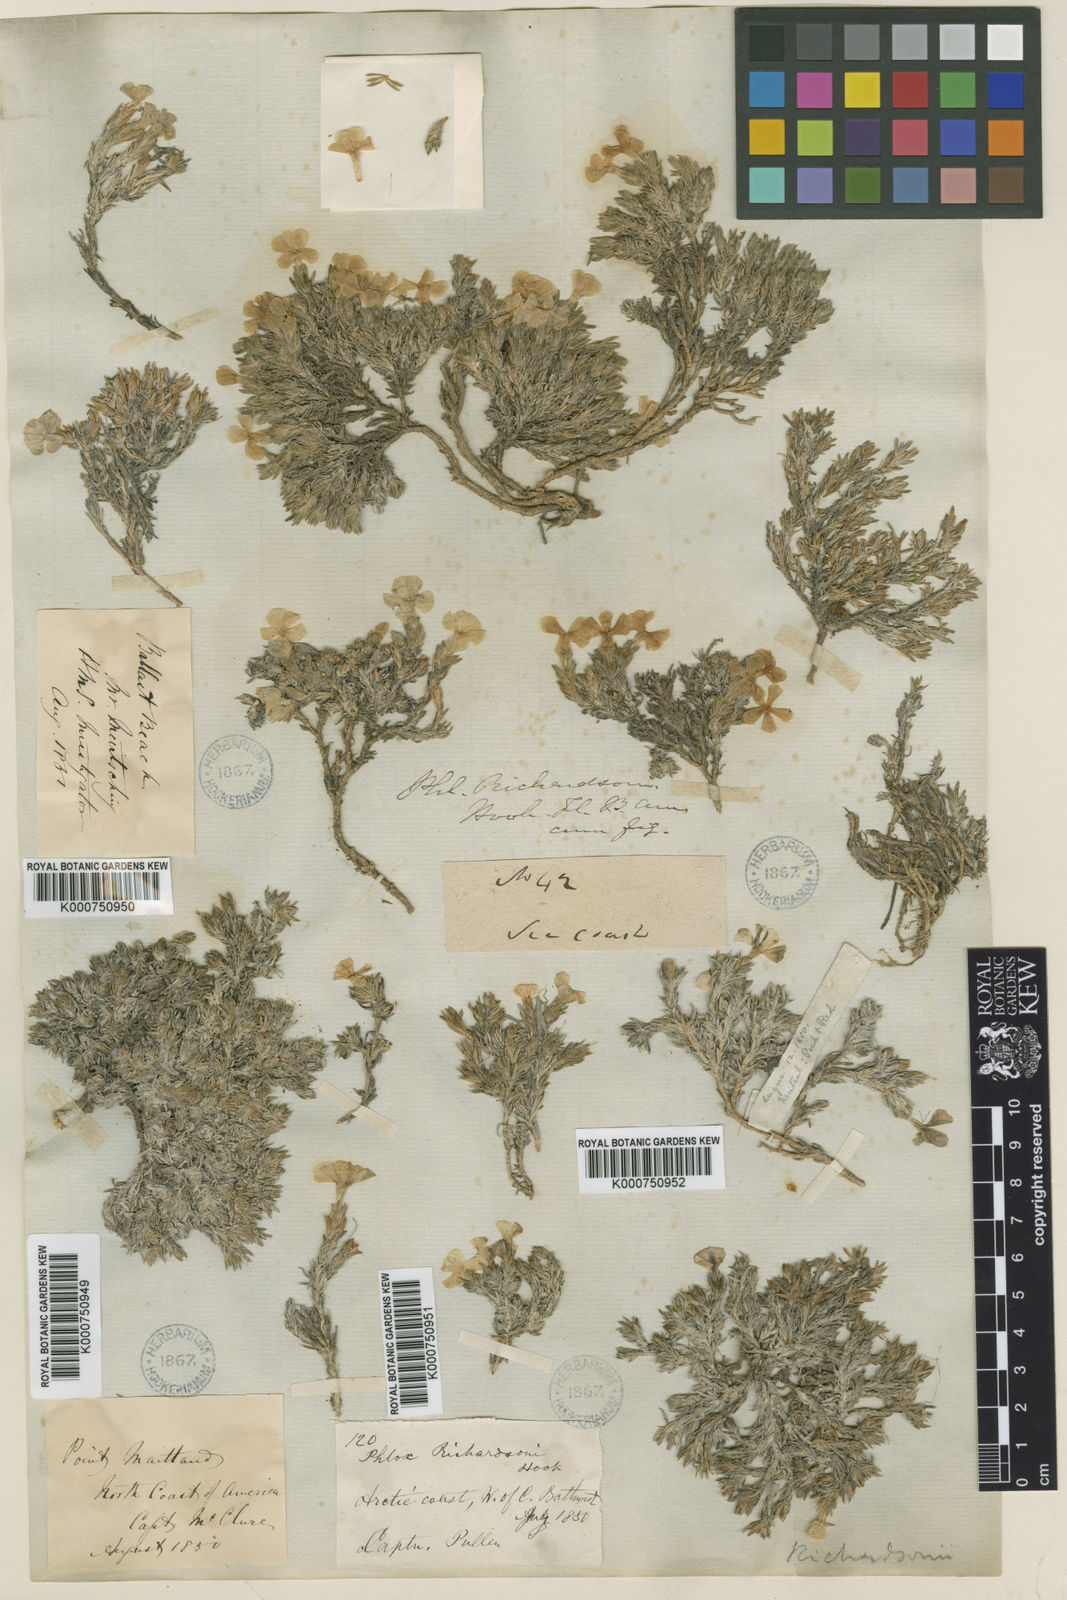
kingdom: Plantae
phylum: Tracheophyta
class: Magnoliopsida
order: Ericales
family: Polemoniaceae
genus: Phlox
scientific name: Phlox richardsonii
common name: Richardson's phlox
